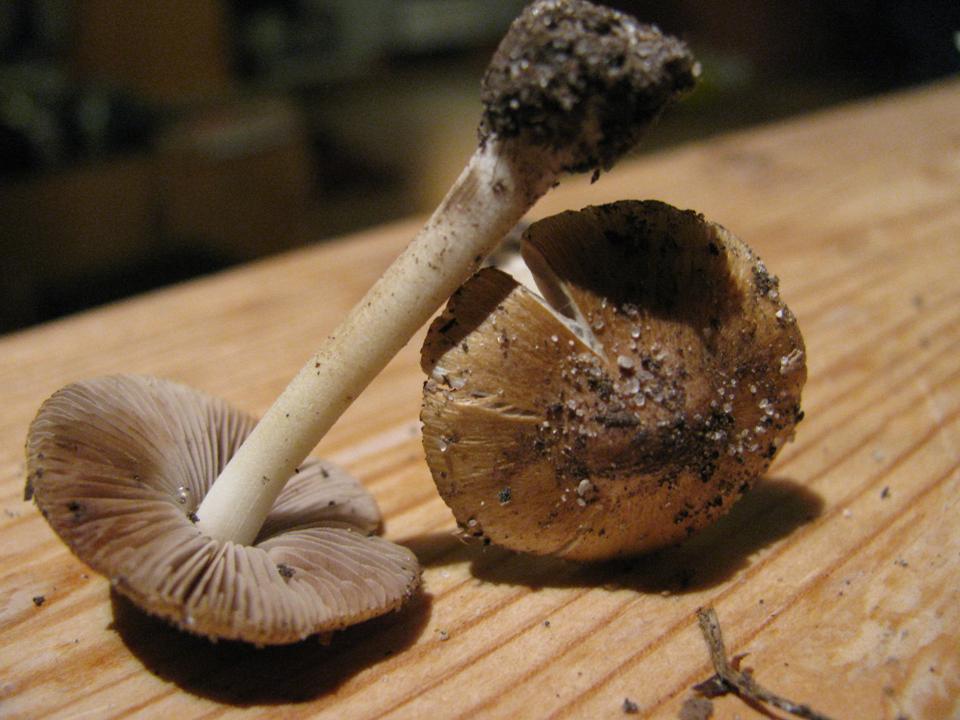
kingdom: Fungi
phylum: Basidiomycota
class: Agaricomycetes
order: Agaricales
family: Inocybaceae
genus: Inocybe
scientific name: Inocybe mixtilis
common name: randknoldet trævlhat
